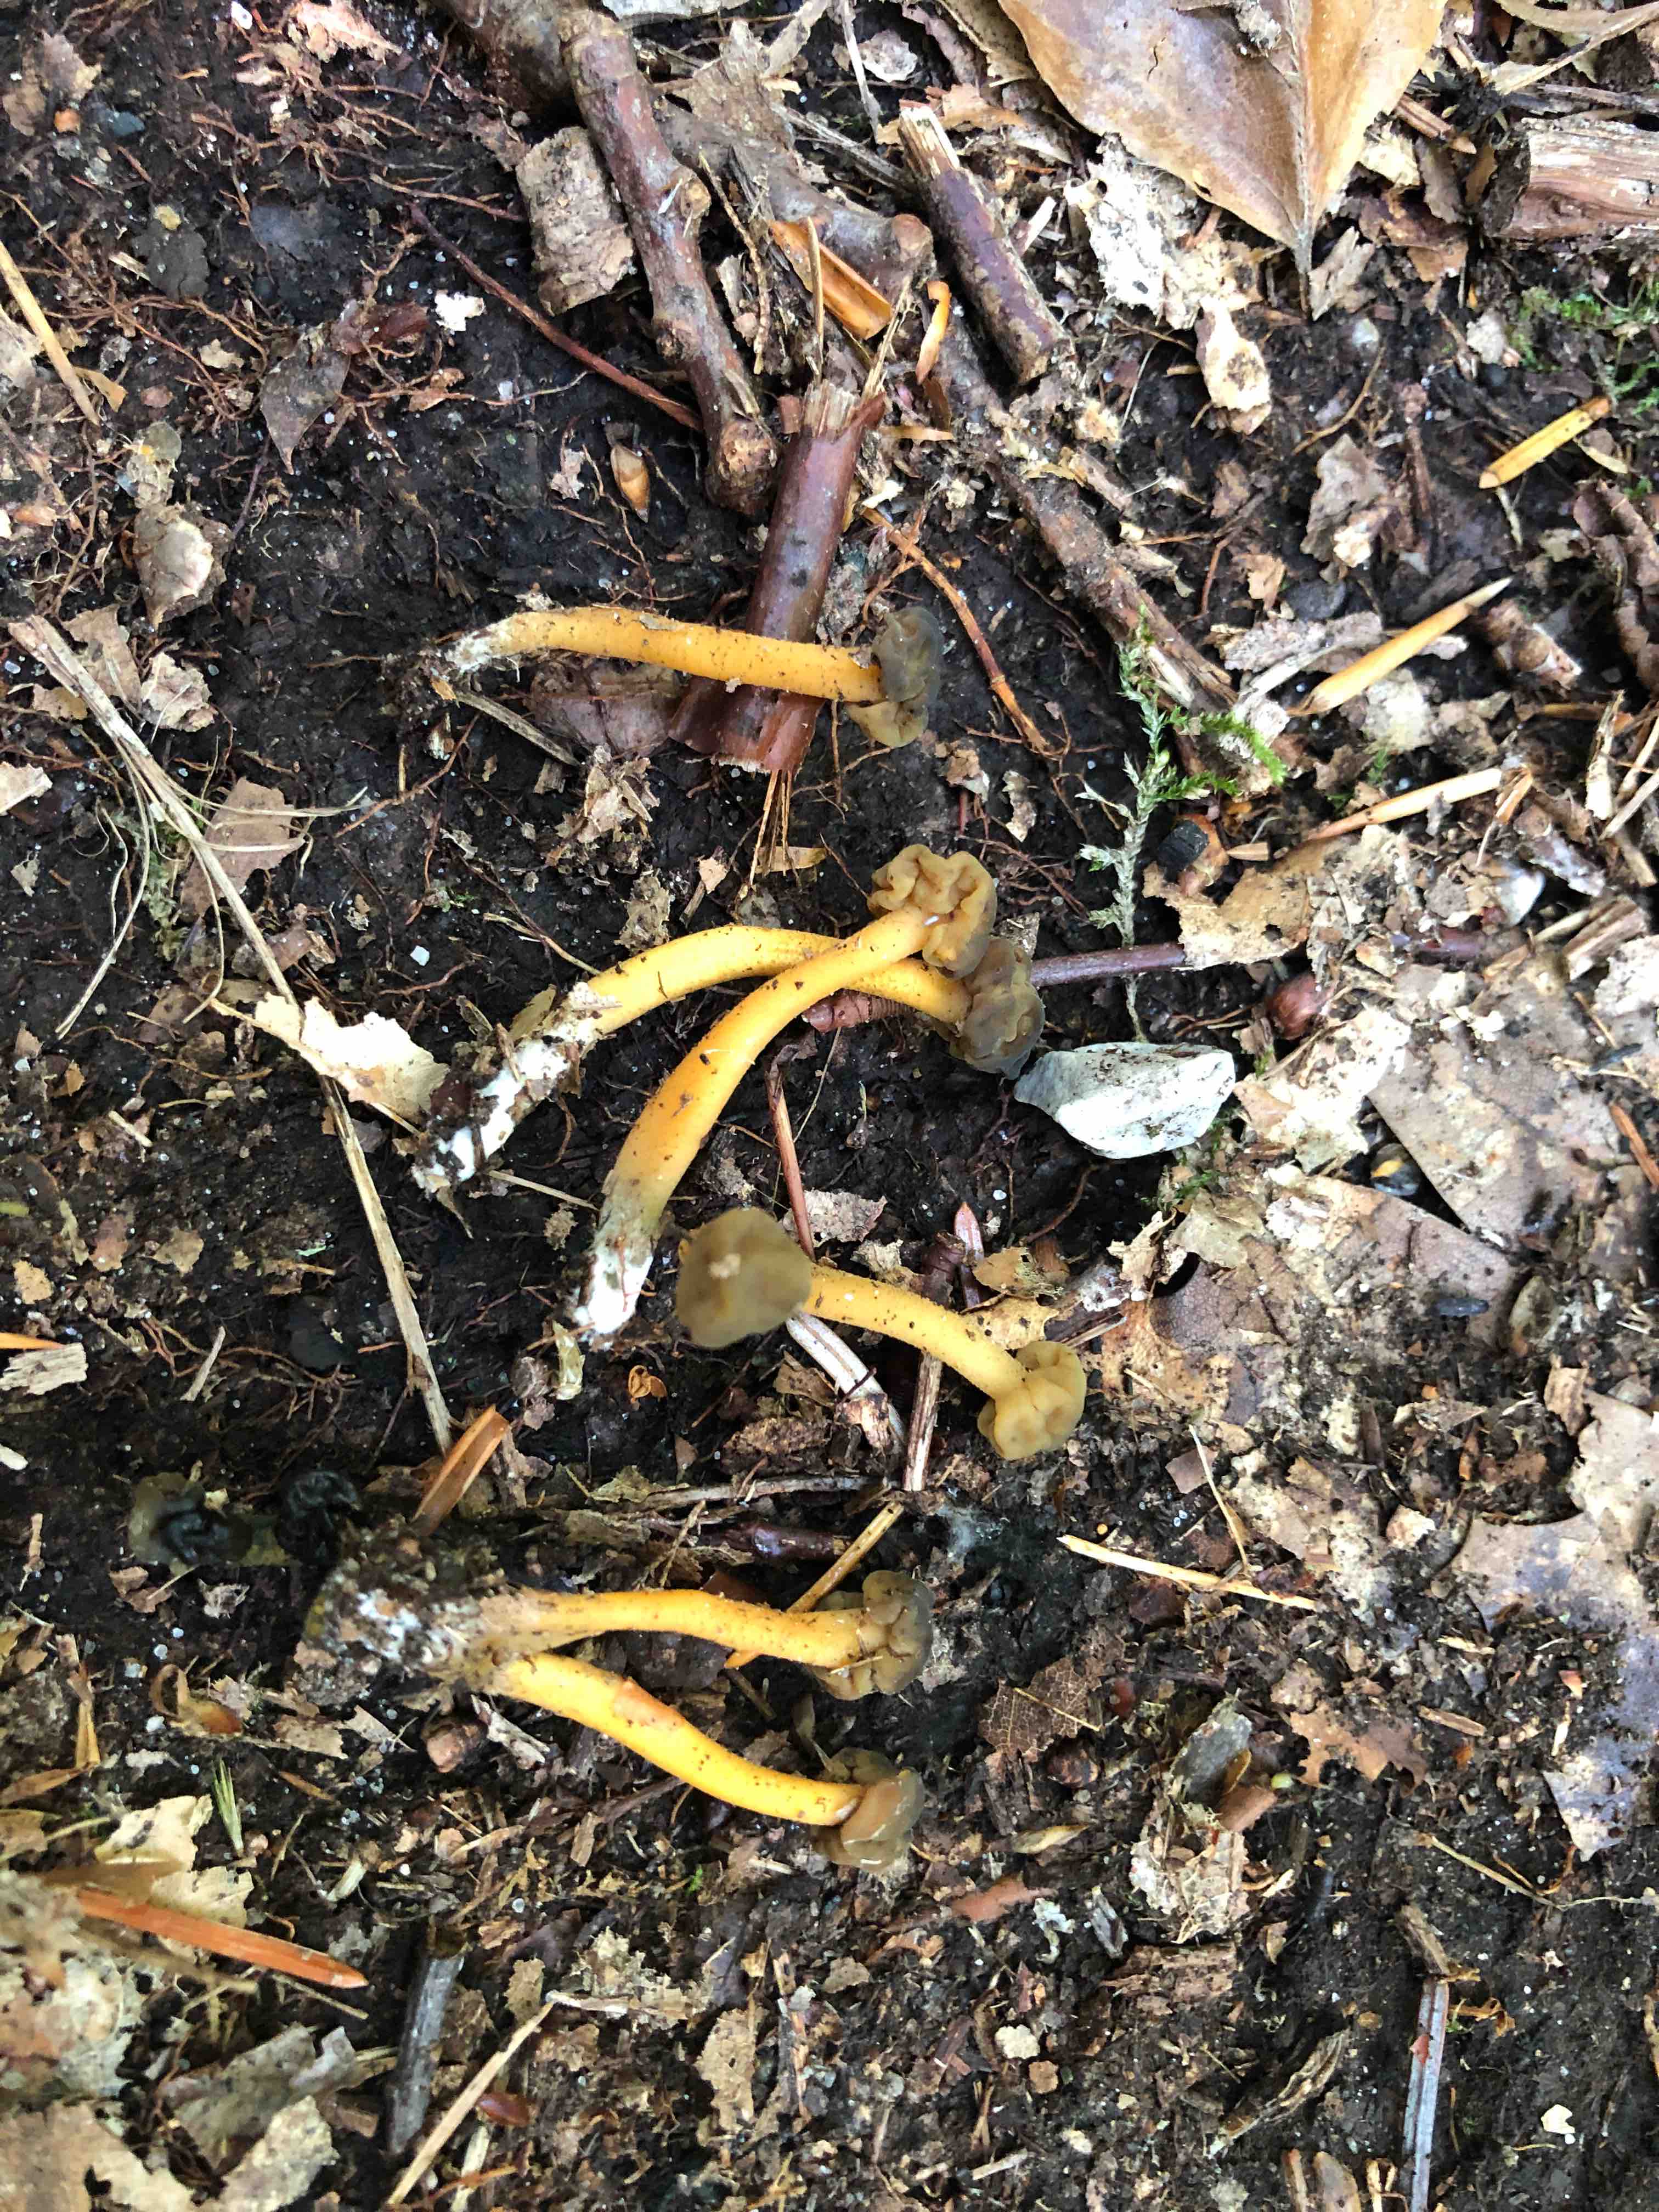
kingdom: Fungi
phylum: Ascomycota
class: Leotiomycetes
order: Leotiales
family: Leotiaceae
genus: Leotia
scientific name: Leotia lubrica
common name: ravsvamp
